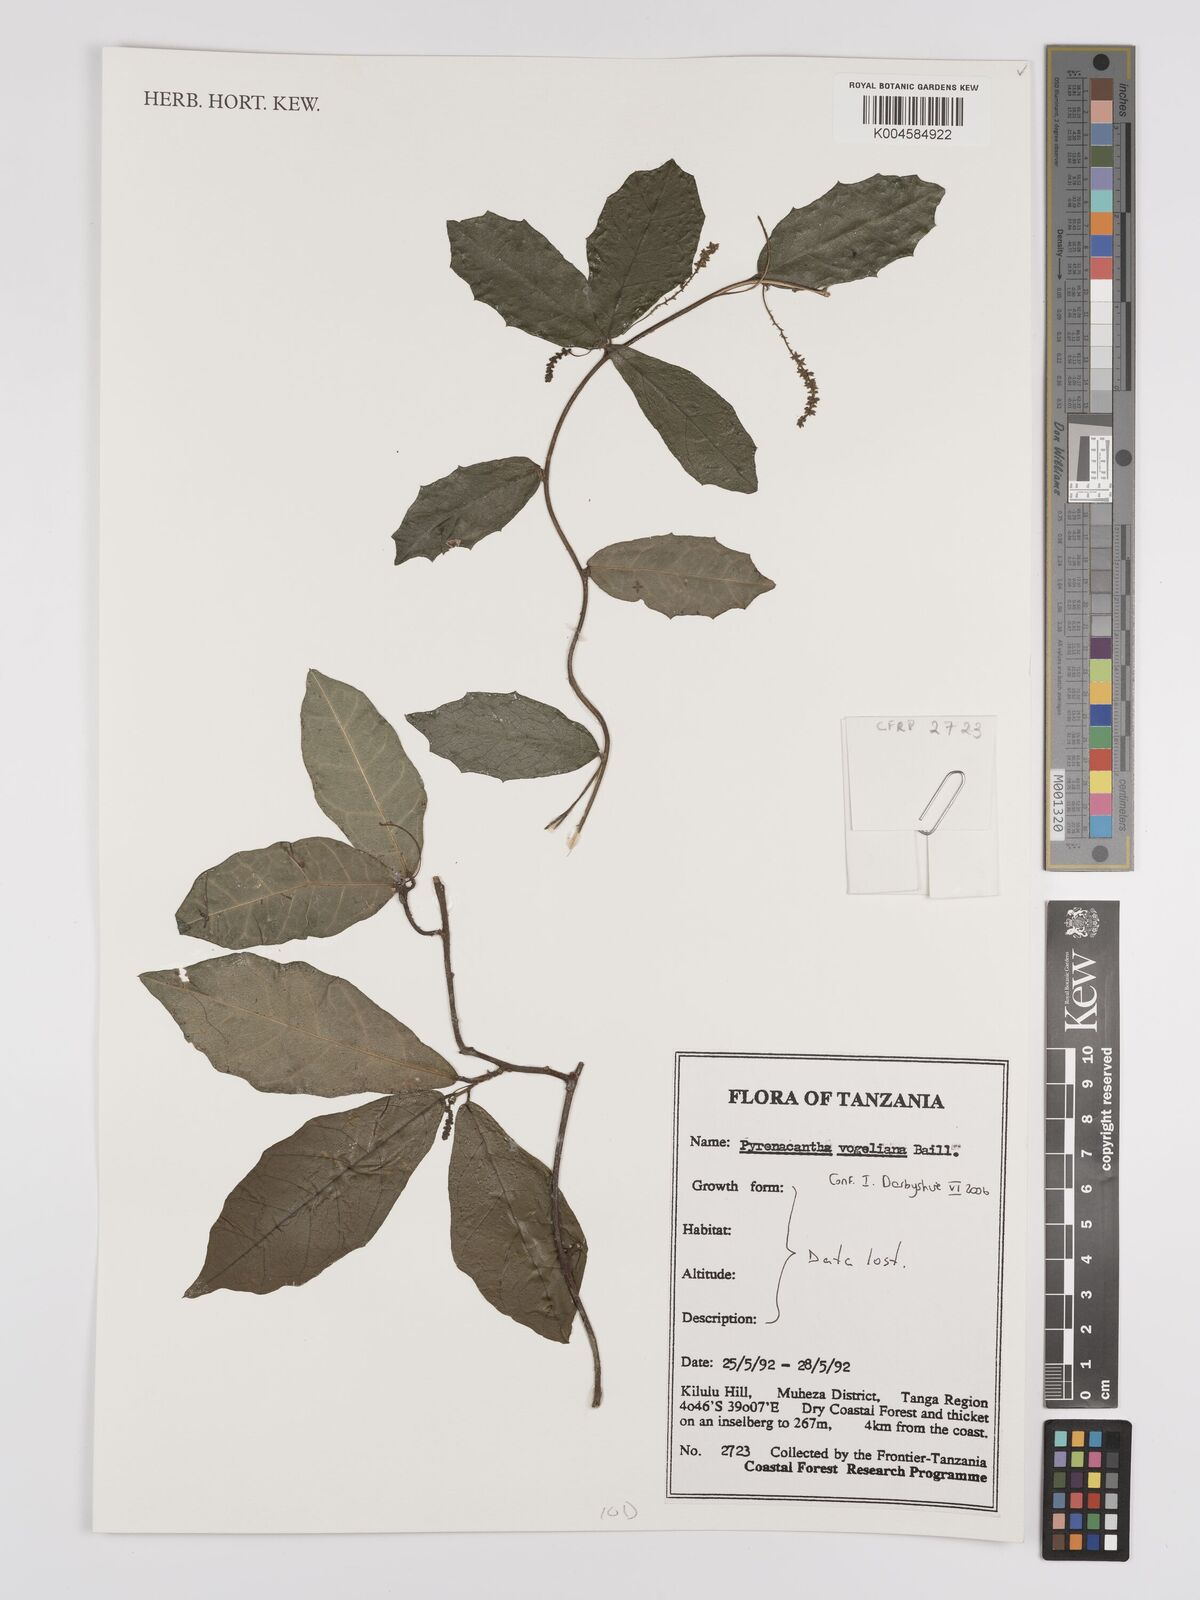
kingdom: Plantae
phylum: Tracheophyta
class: Magnoliopsida
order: Icacinales
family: Icacinaceae
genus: Pyrenacantha
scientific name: Pyrenacantha vogeliana
